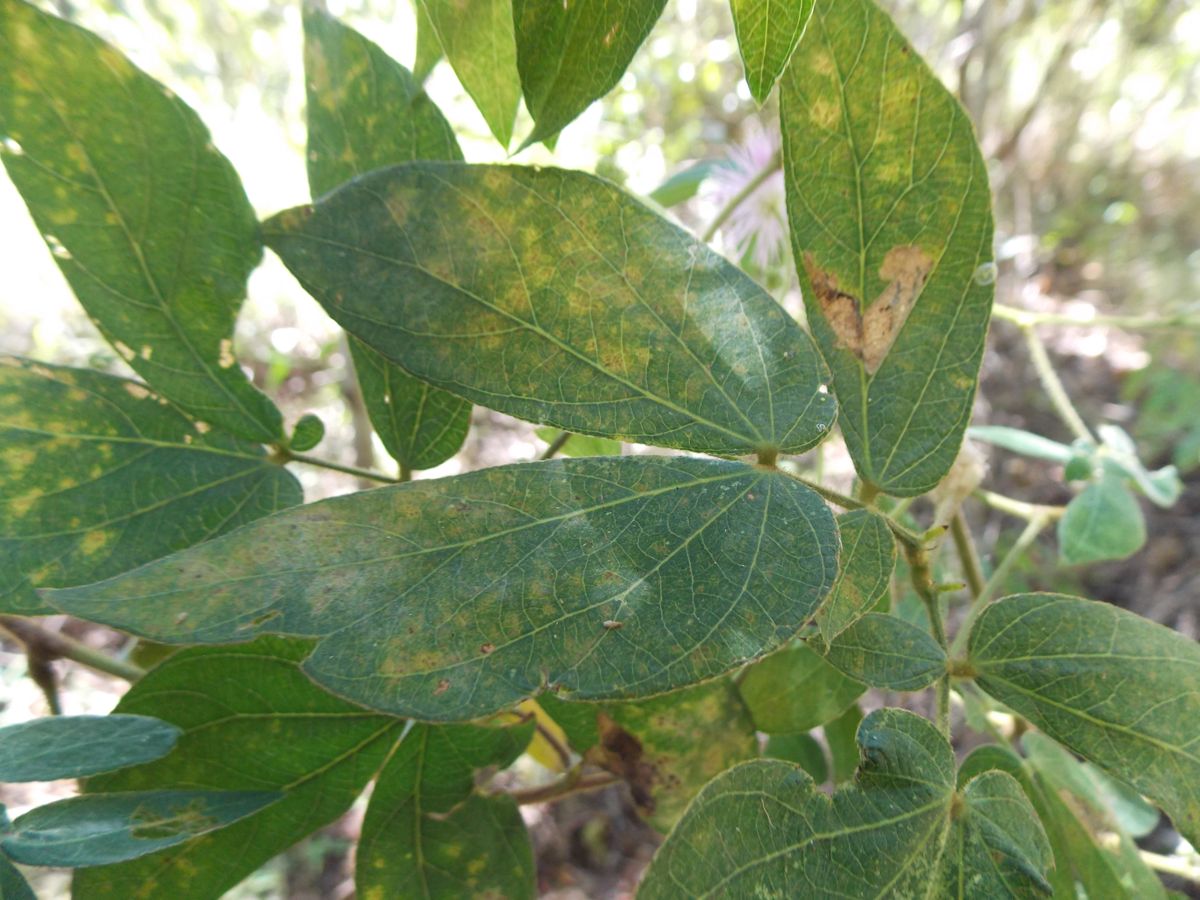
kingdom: Plantae
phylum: Tracheophyta
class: Magnoliopsida
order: Fabales
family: Fabaceae
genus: Mimosa
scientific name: Mimosa albida
